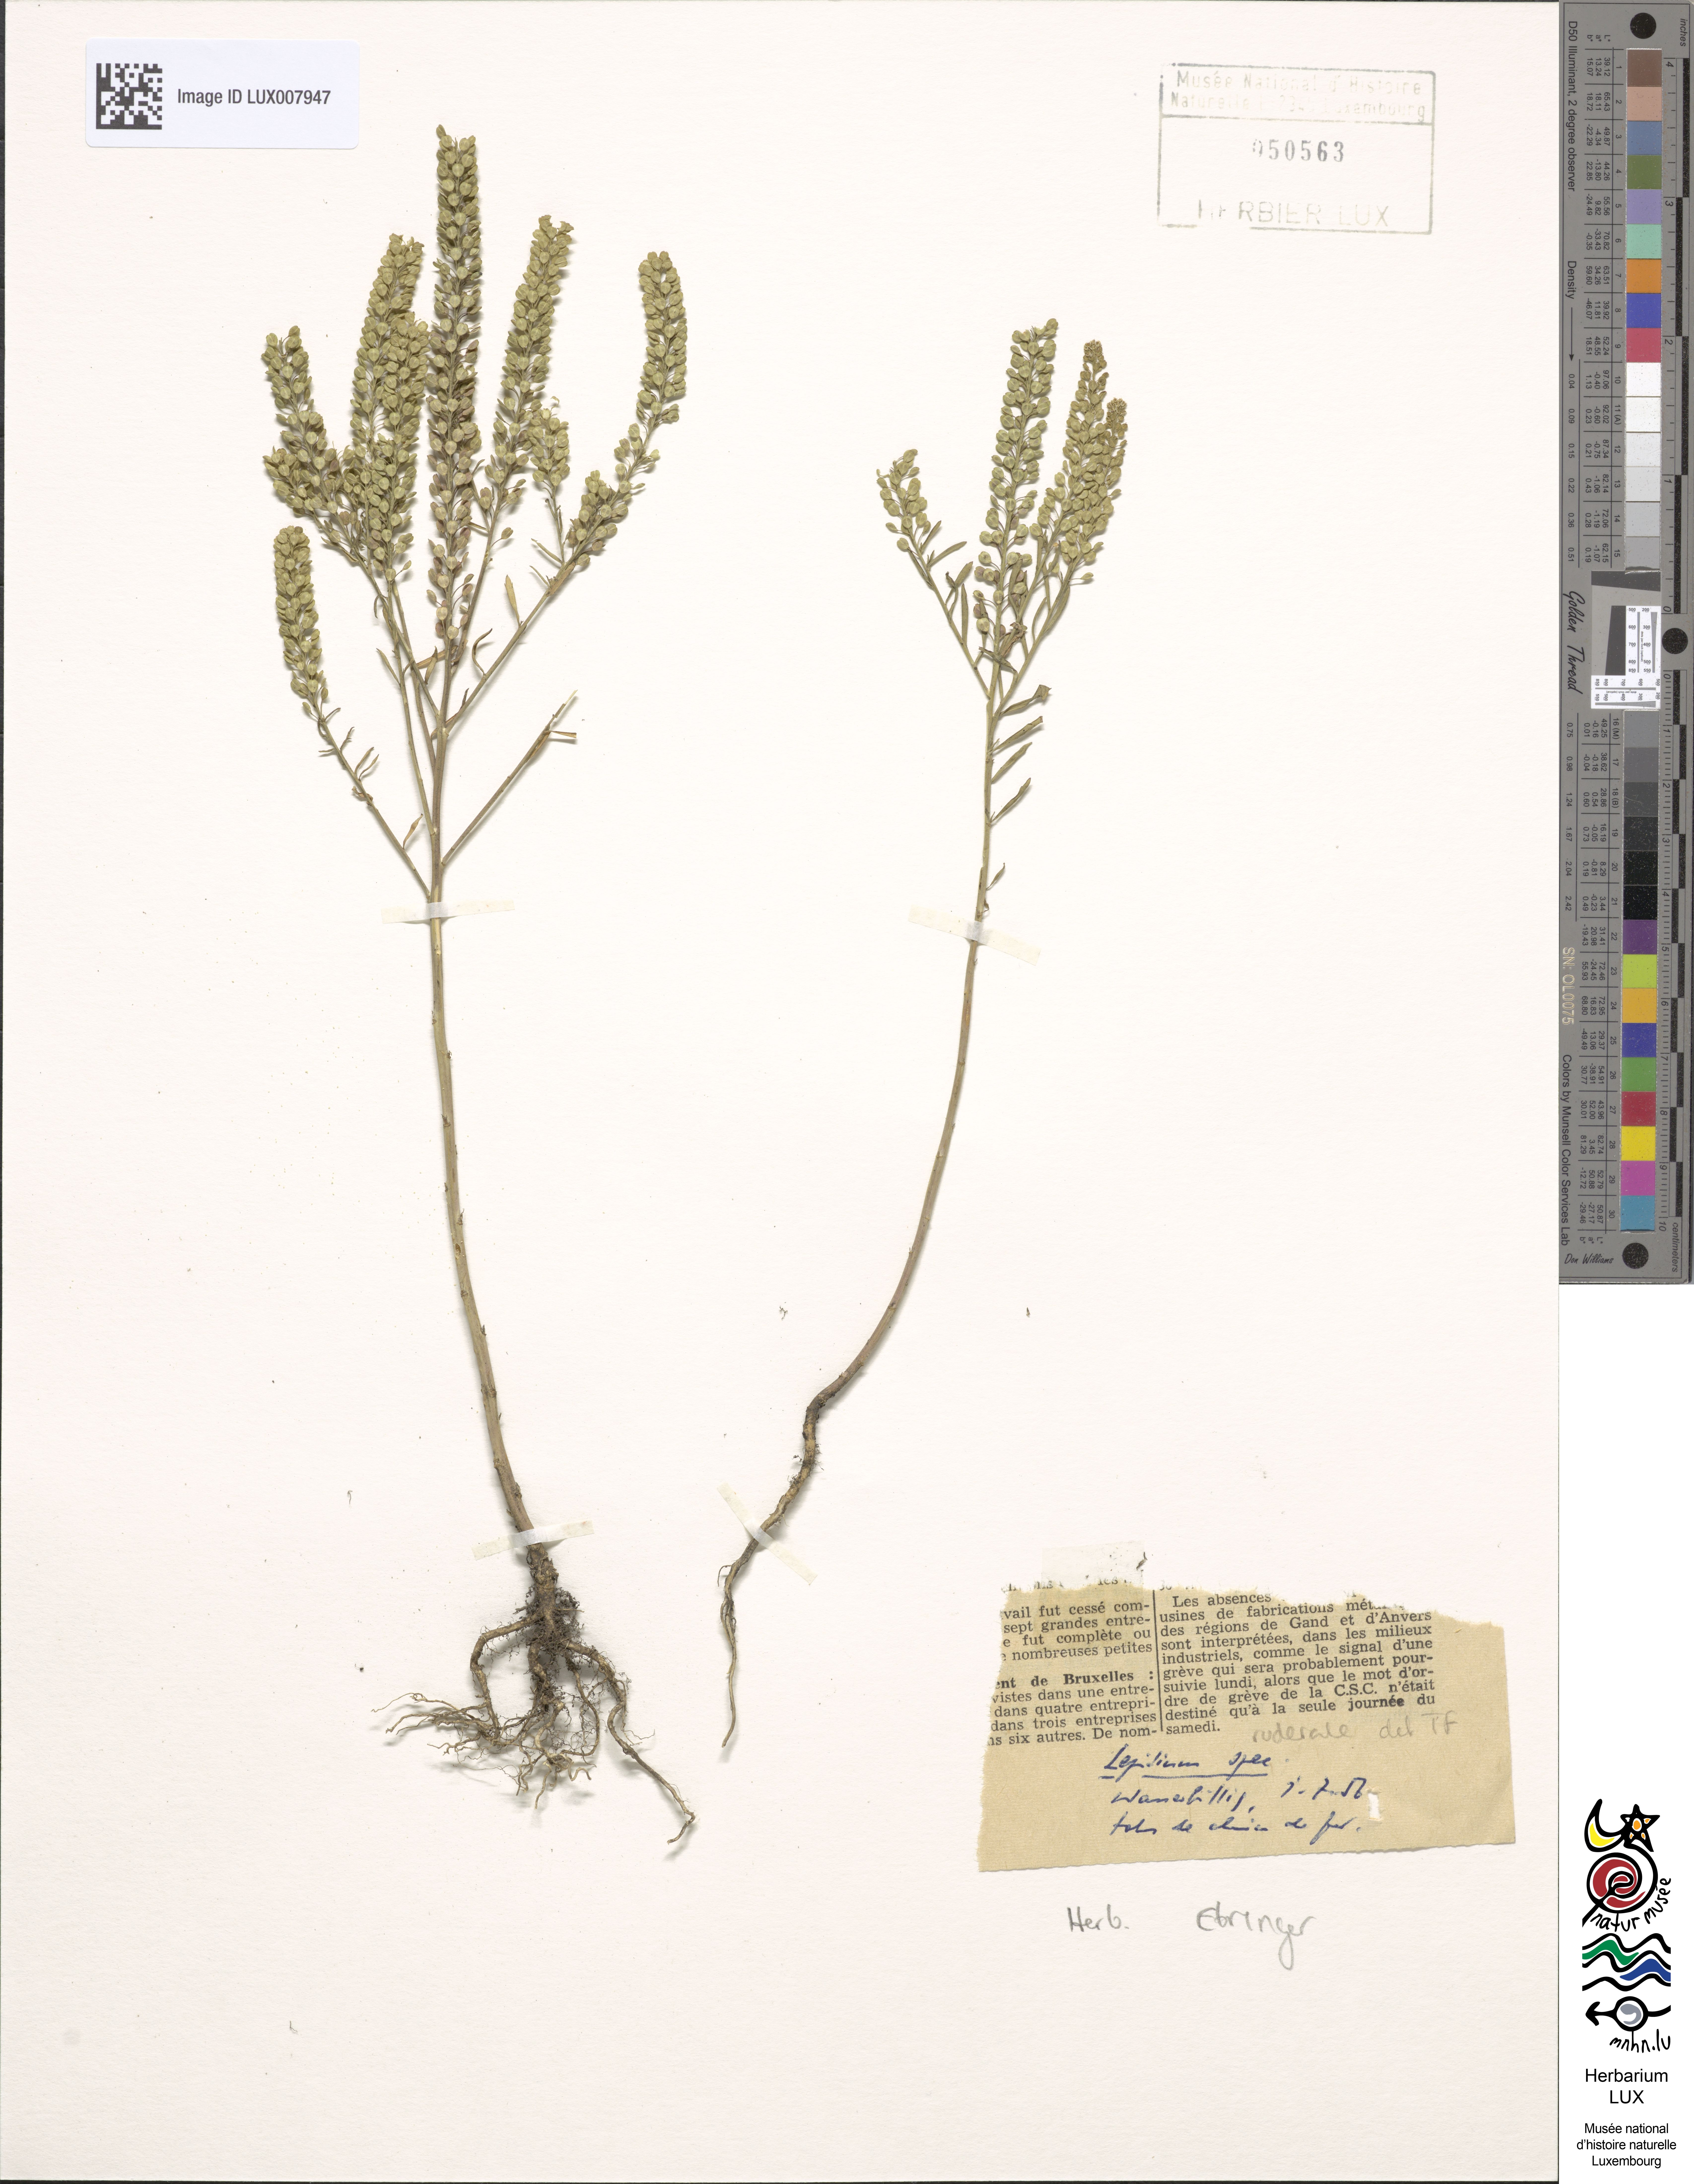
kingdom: Plantae
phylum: Tracheophyta
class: Magnoliopsida
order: Brassicales
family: Brassicaceae
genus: Lepidium
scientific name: Lepidium ruderale
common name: Narrow-leaved pepperwort
